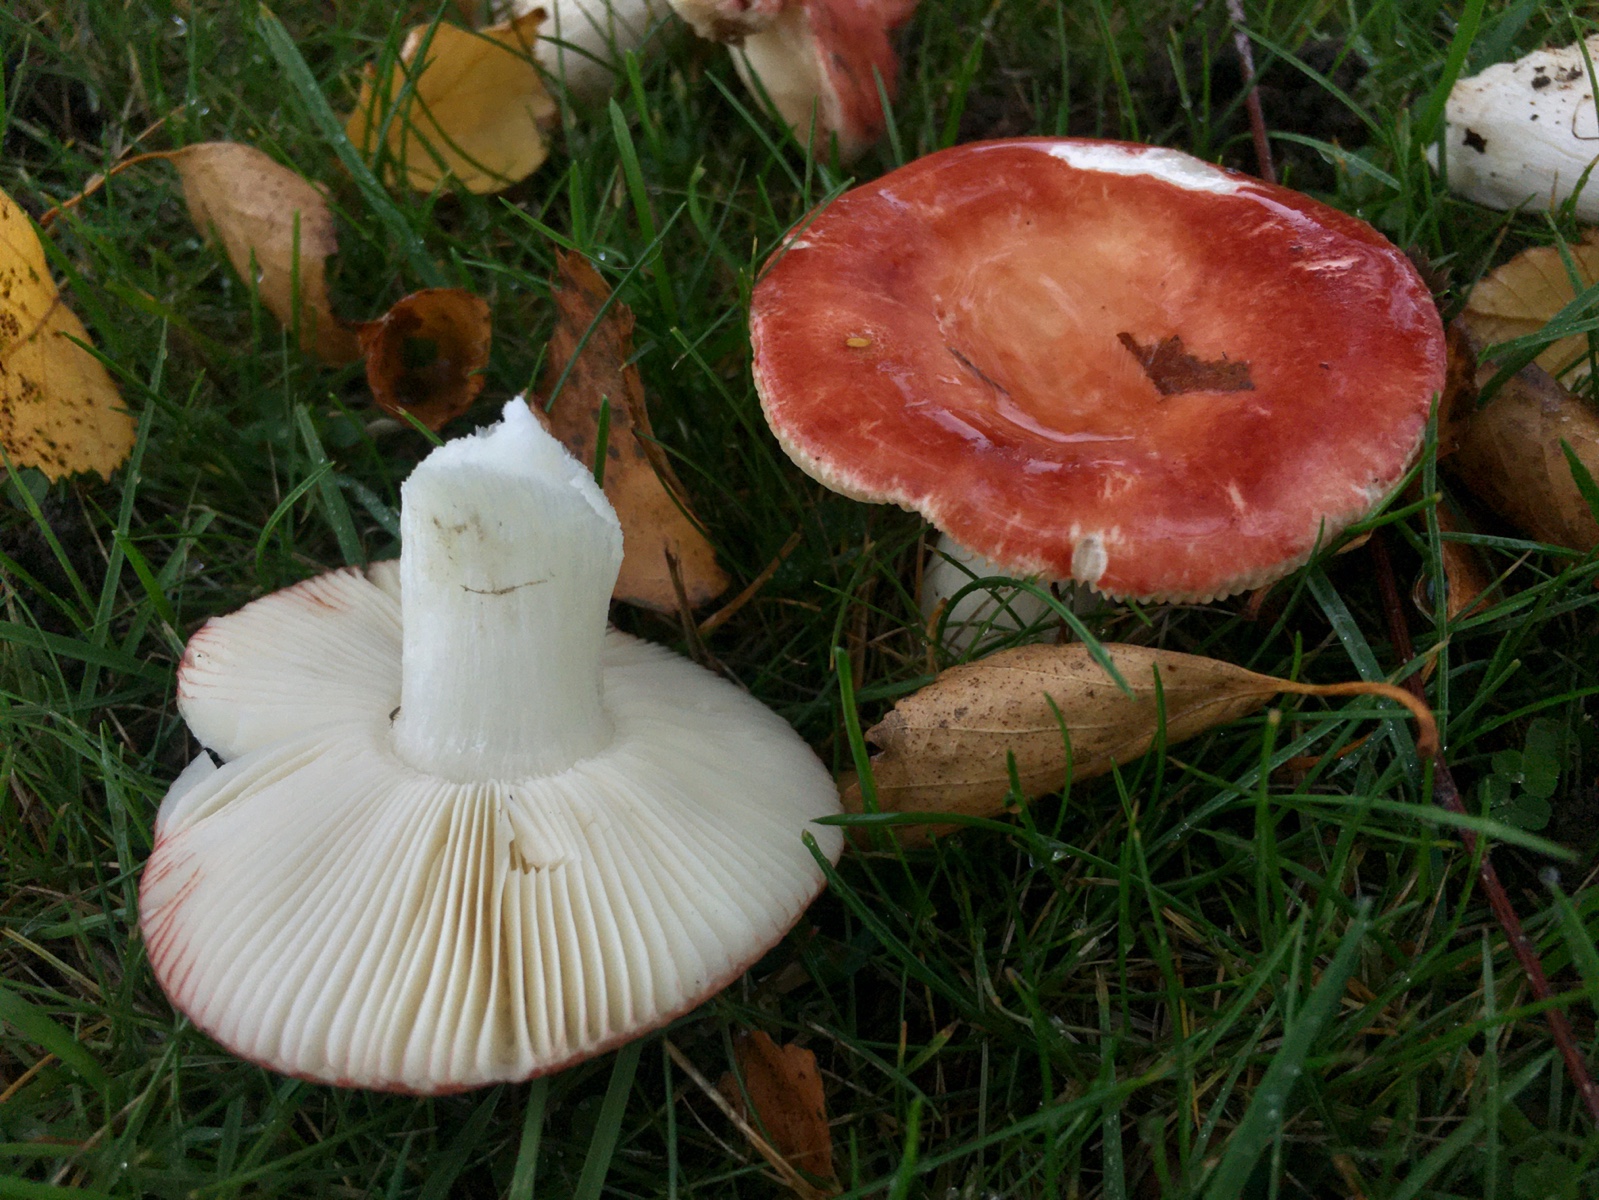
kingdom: Fungi
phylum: Basidiomycota
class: Agaricomycetes
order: Russulales
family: Russulaceae
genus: Russula
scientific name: Russula velenovskyi
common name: orangerød skørhat
